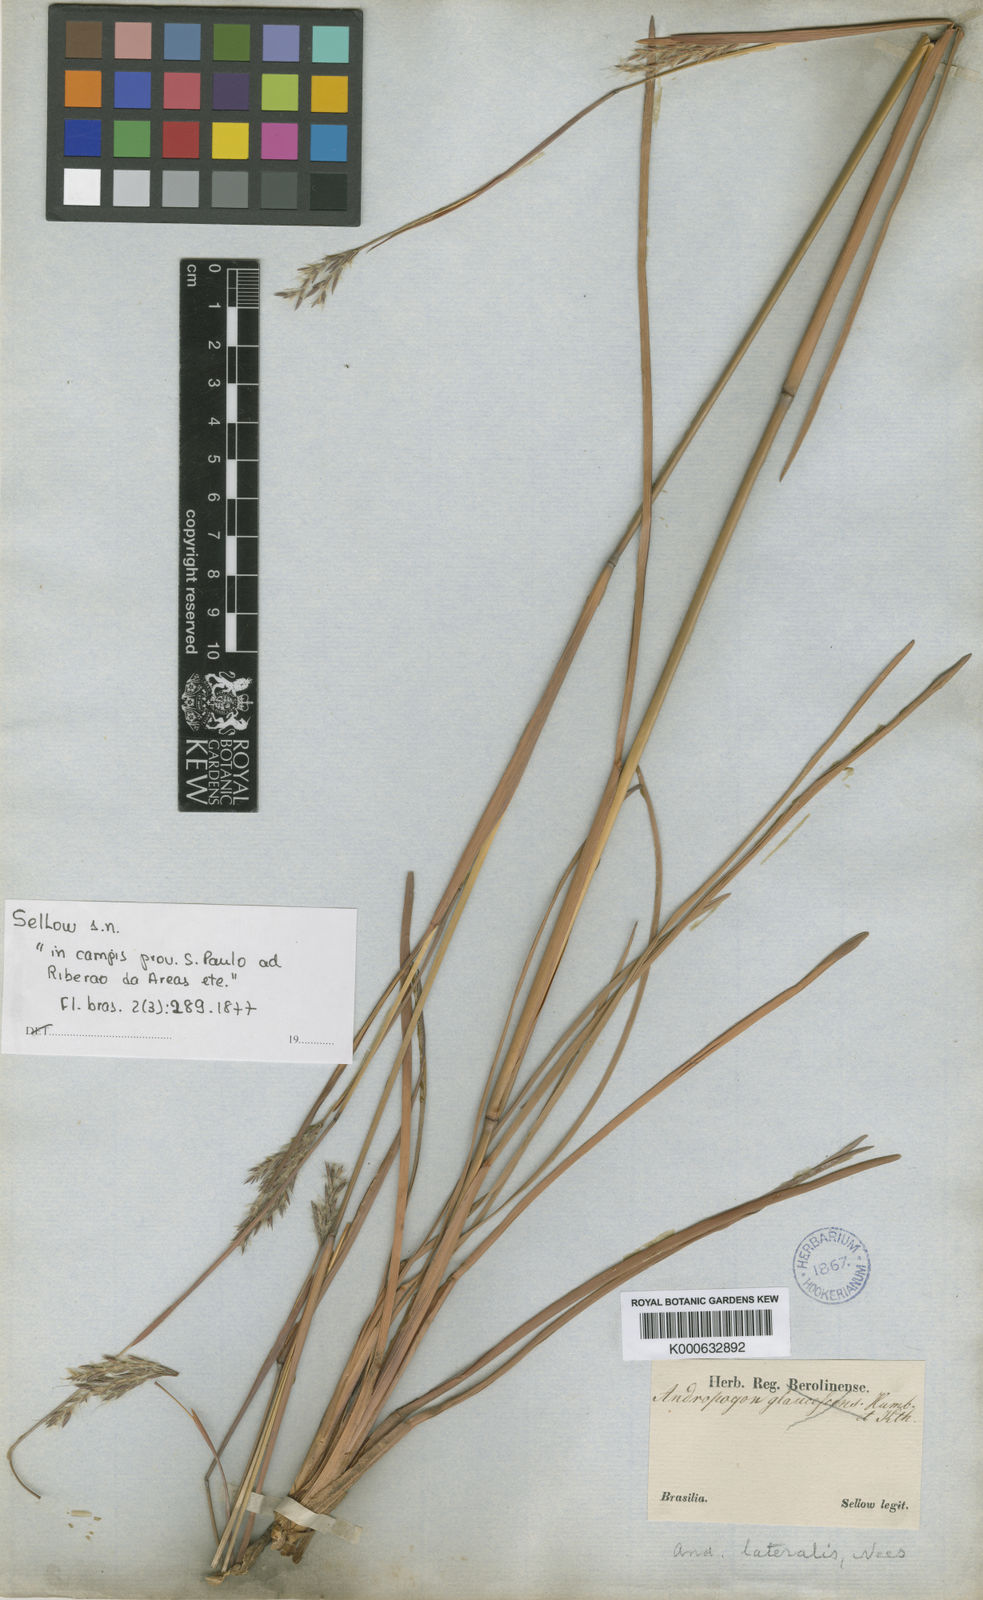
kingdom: Plantae
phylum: Tracheophyta
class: Liliopsida
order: Poales
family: Poaceae
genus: Andropogon
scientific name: Andropogon hypogynus
